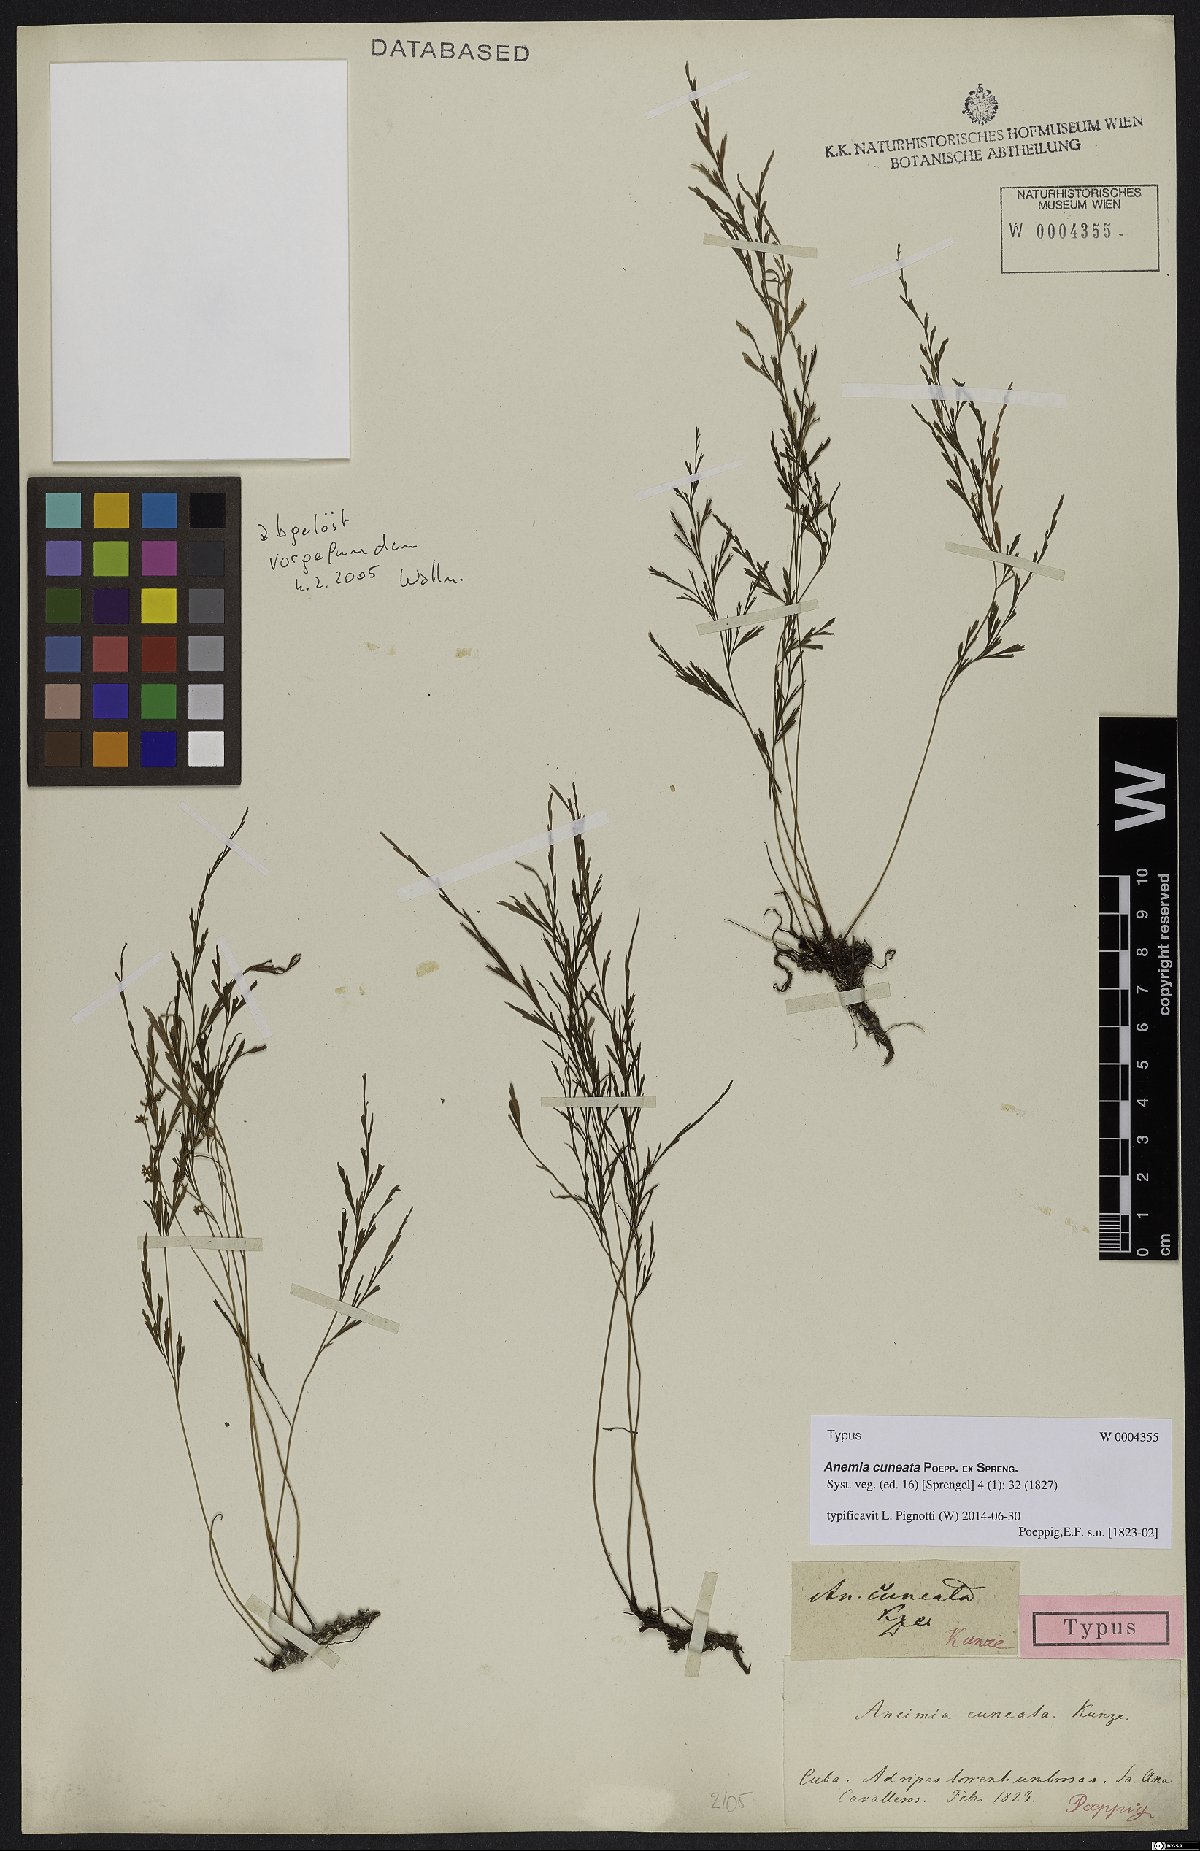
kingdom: Plantae
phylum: Tracheophyta
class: Polypodiopsida
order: Schizaeales
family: Anemiaceae
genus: Anemia
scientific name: Anemia cuneata
